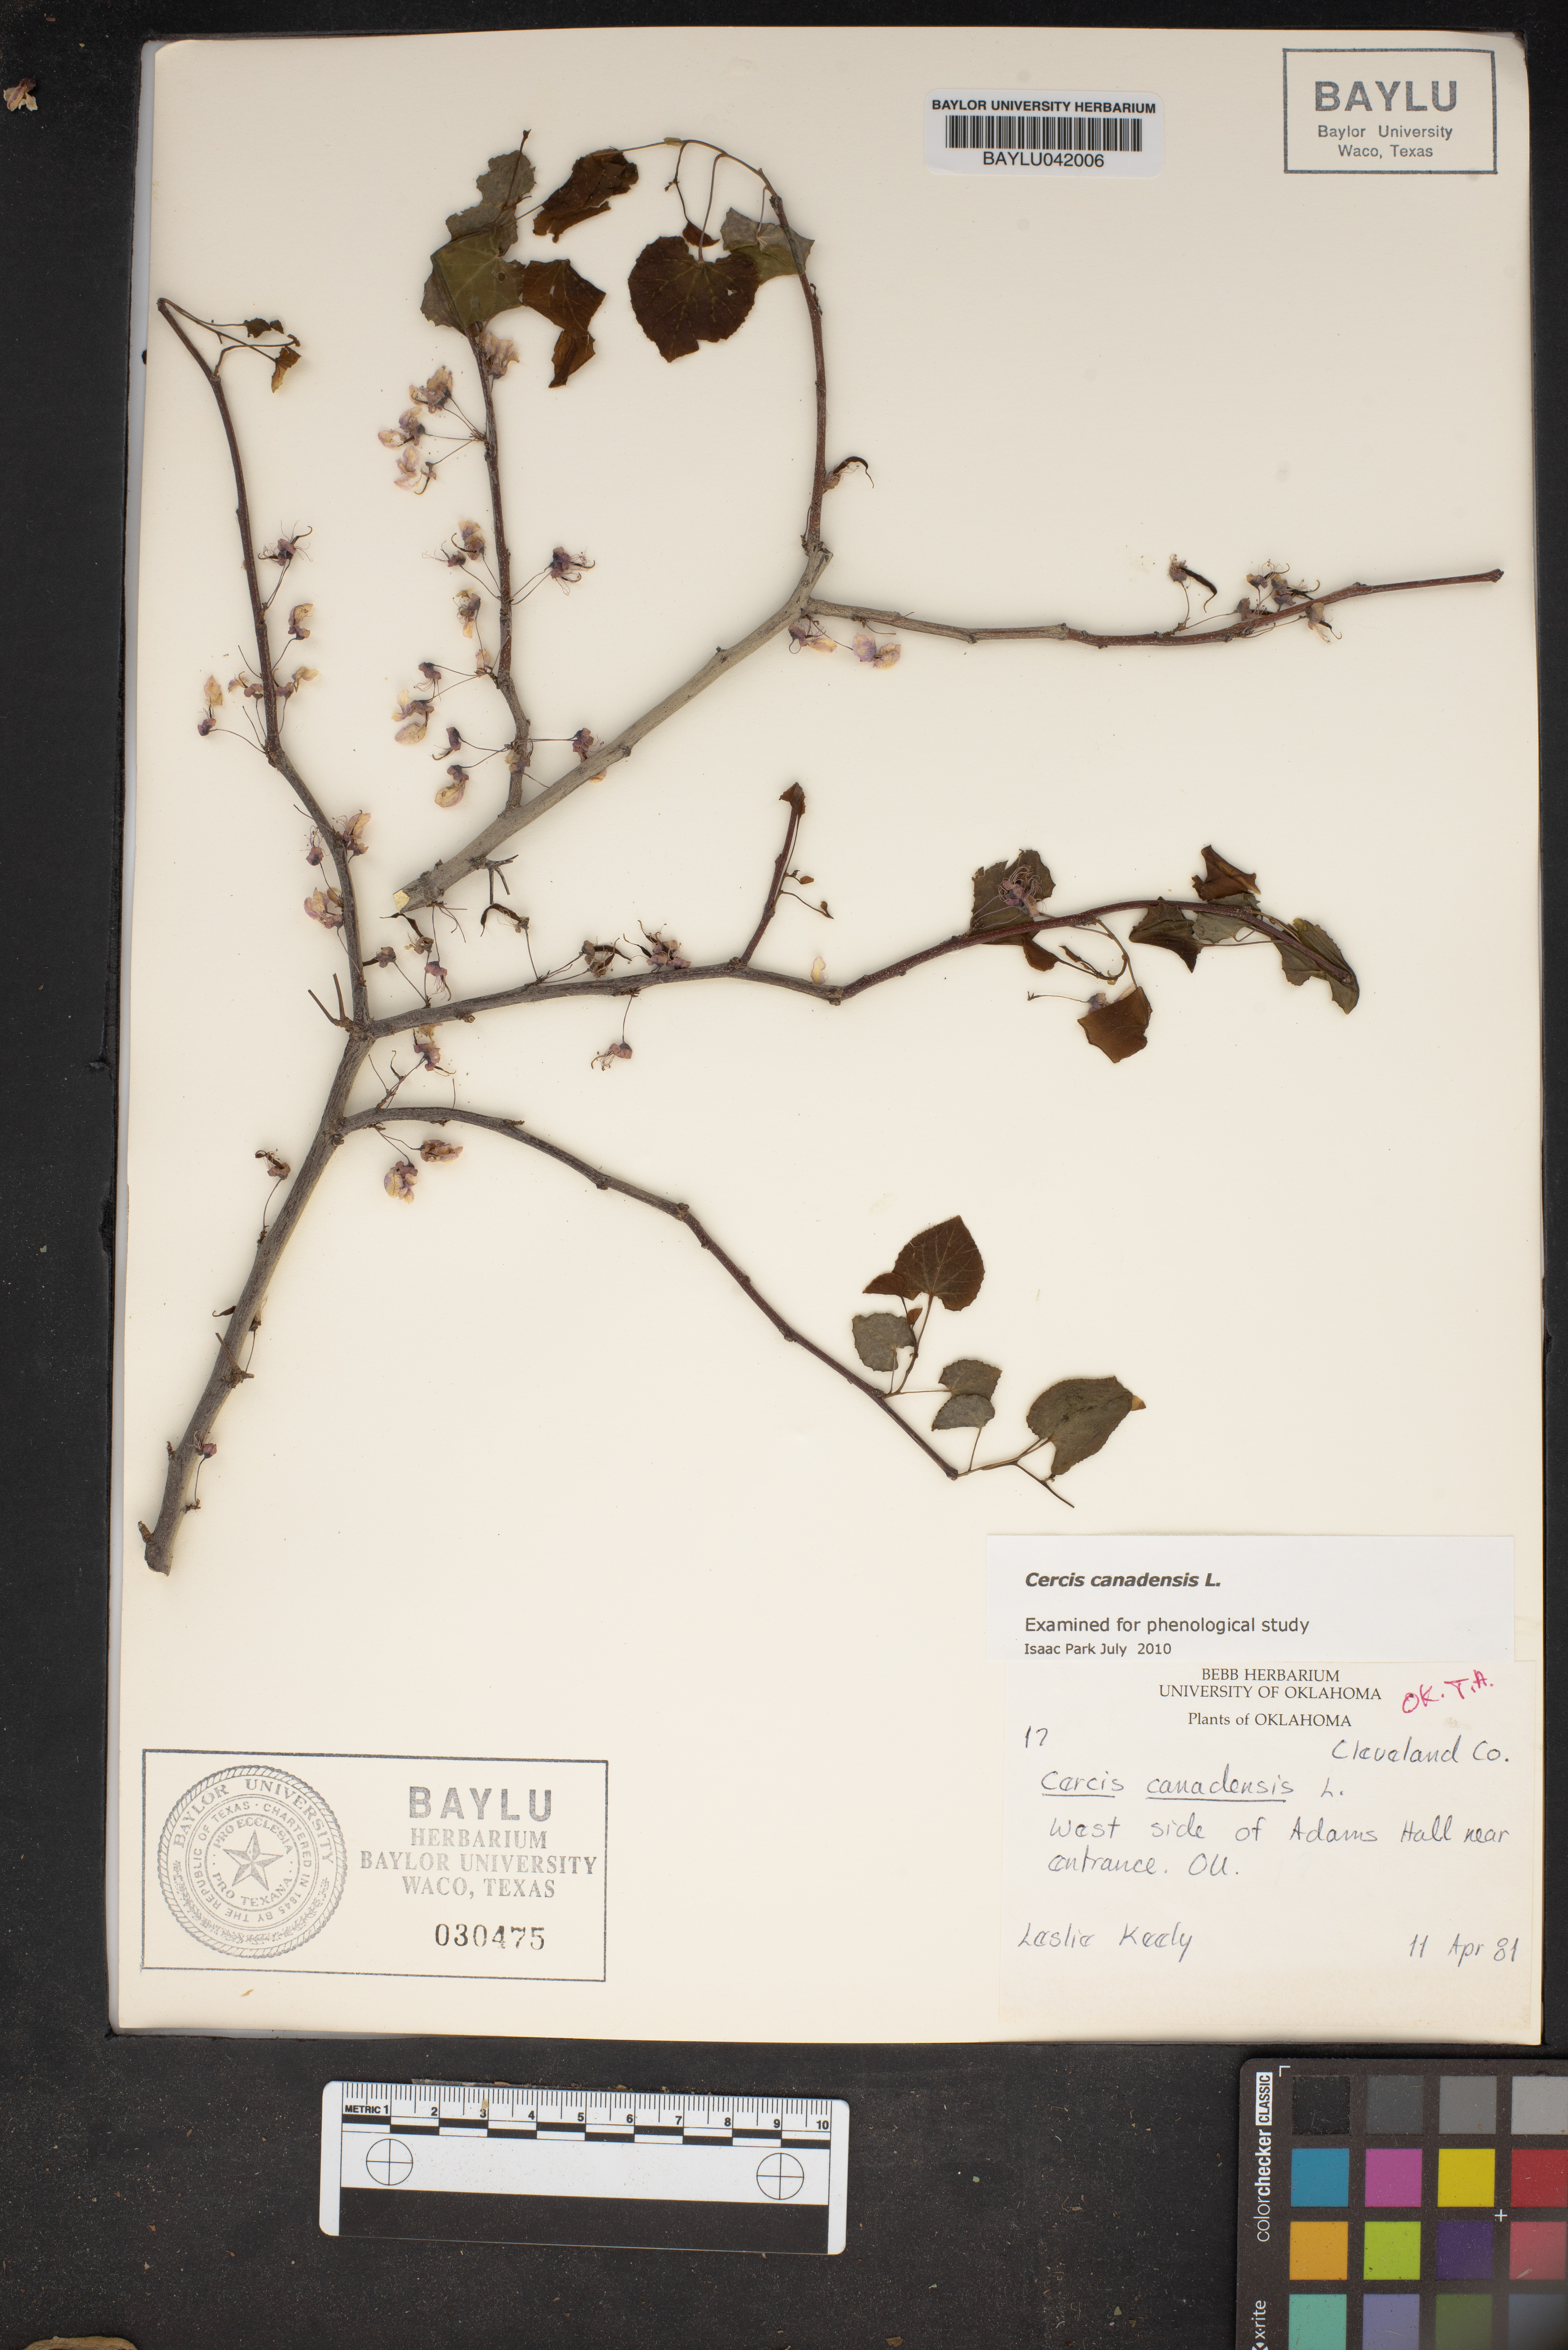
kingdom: Plantae
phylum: Tracheophyta
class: Magnoliopsida
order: Fabales
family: Fabaceae
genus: Cercis
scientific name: Cercis canadensis
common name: Eastern redbud
